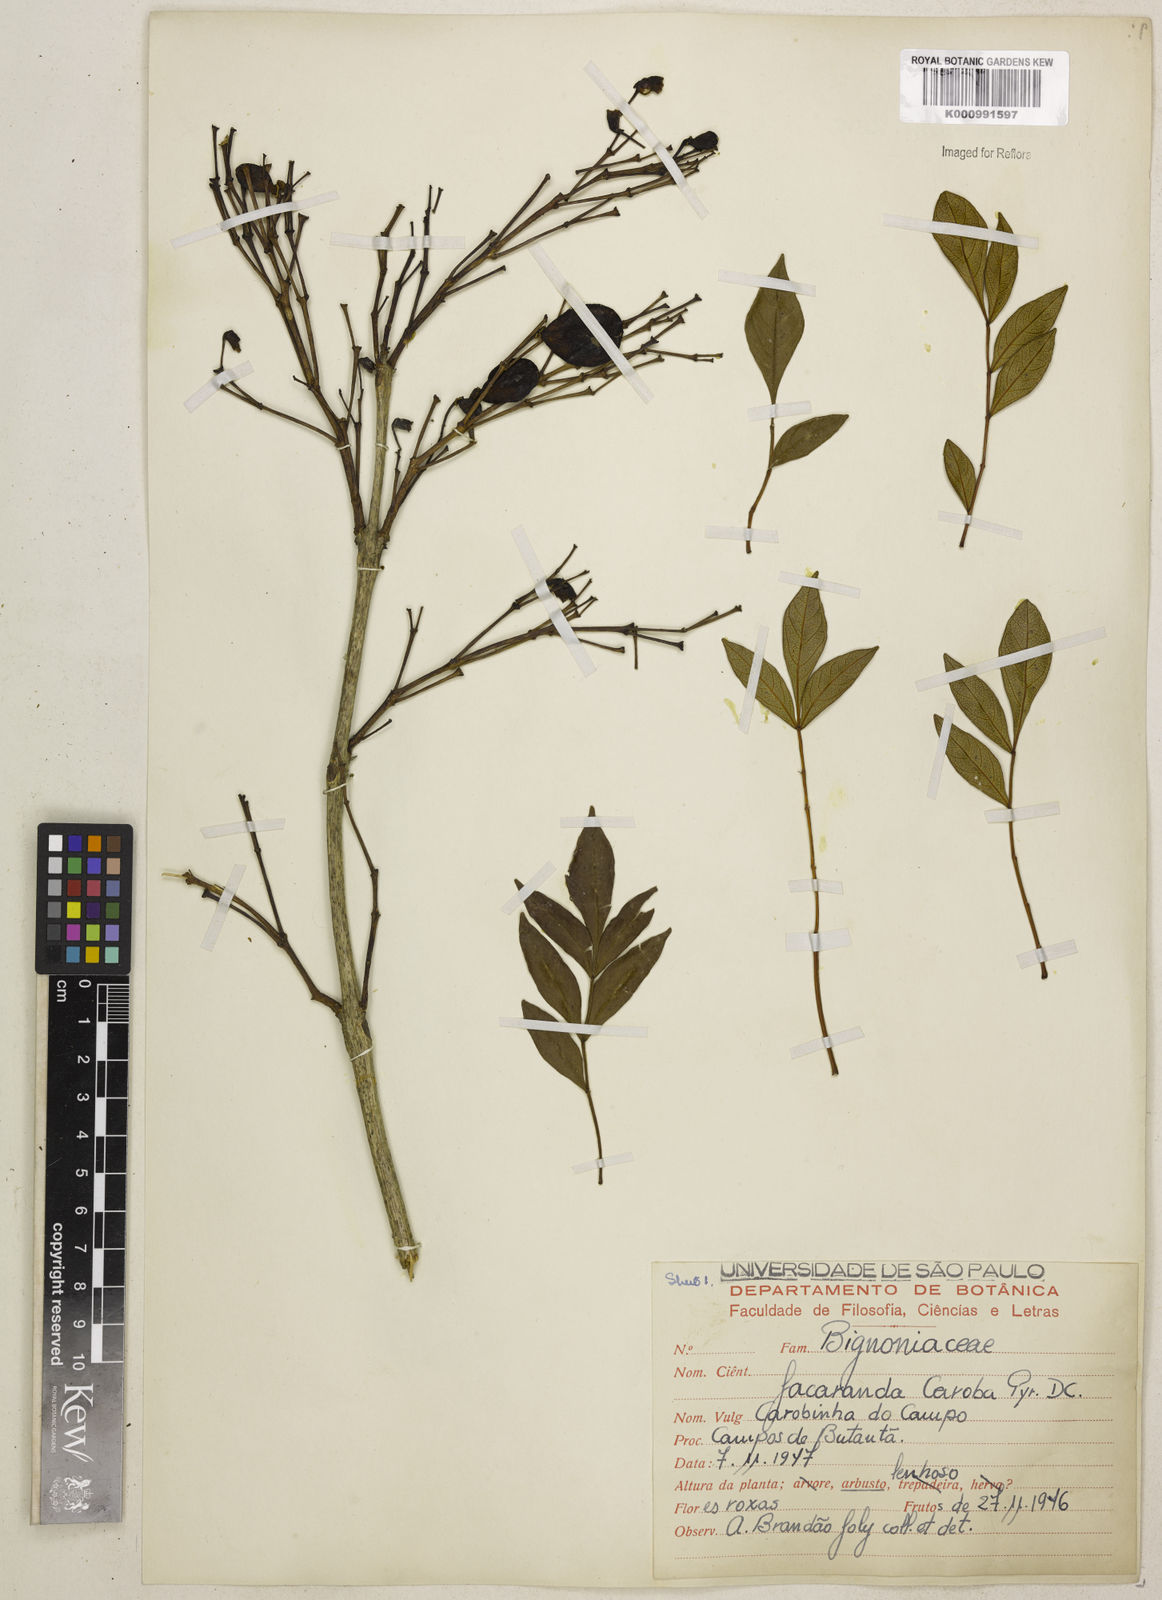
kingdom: Plantae
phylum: Tracheophyta
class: Magnoliopsida
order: Lamiales
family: Bignoniaceae
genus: Jacaranda
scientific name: Jacaranda caroba
